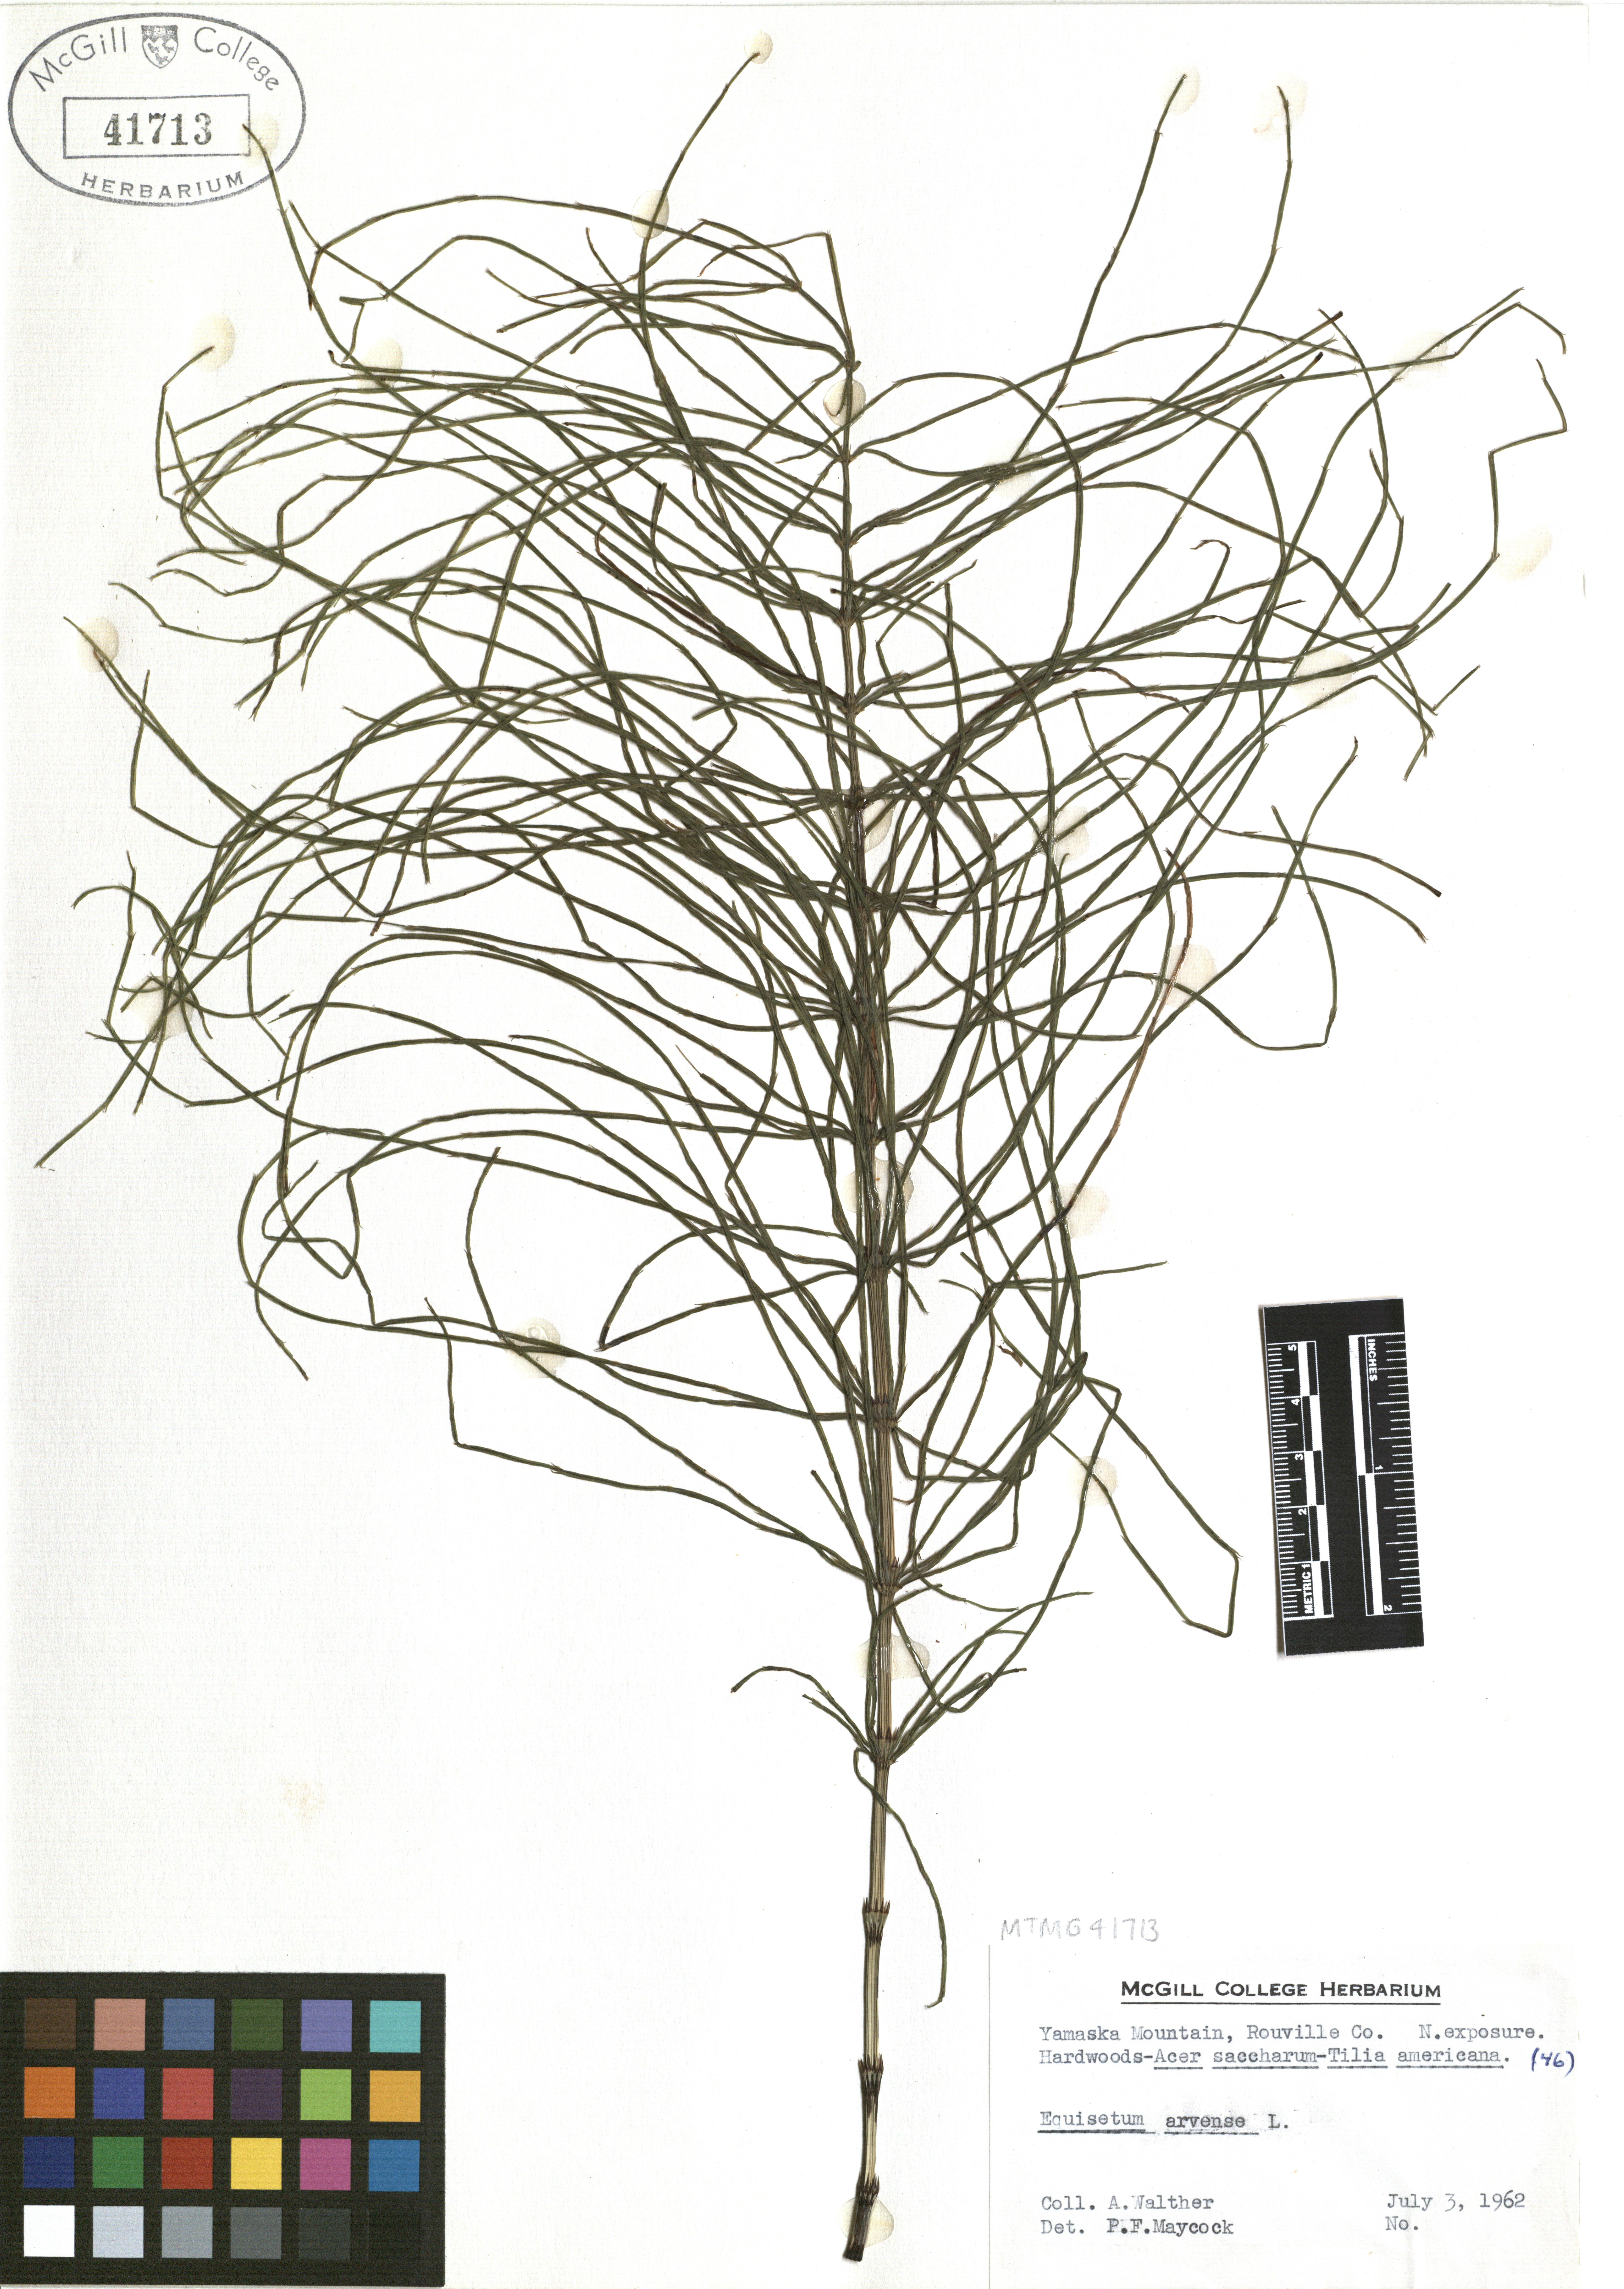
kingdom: Plantae
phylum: Tracheophyta
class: Polypodiopsida
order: Equisetales
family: Equisetaceae
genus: Equisetum
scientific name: Equisetum arvense
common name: Field horsetail
